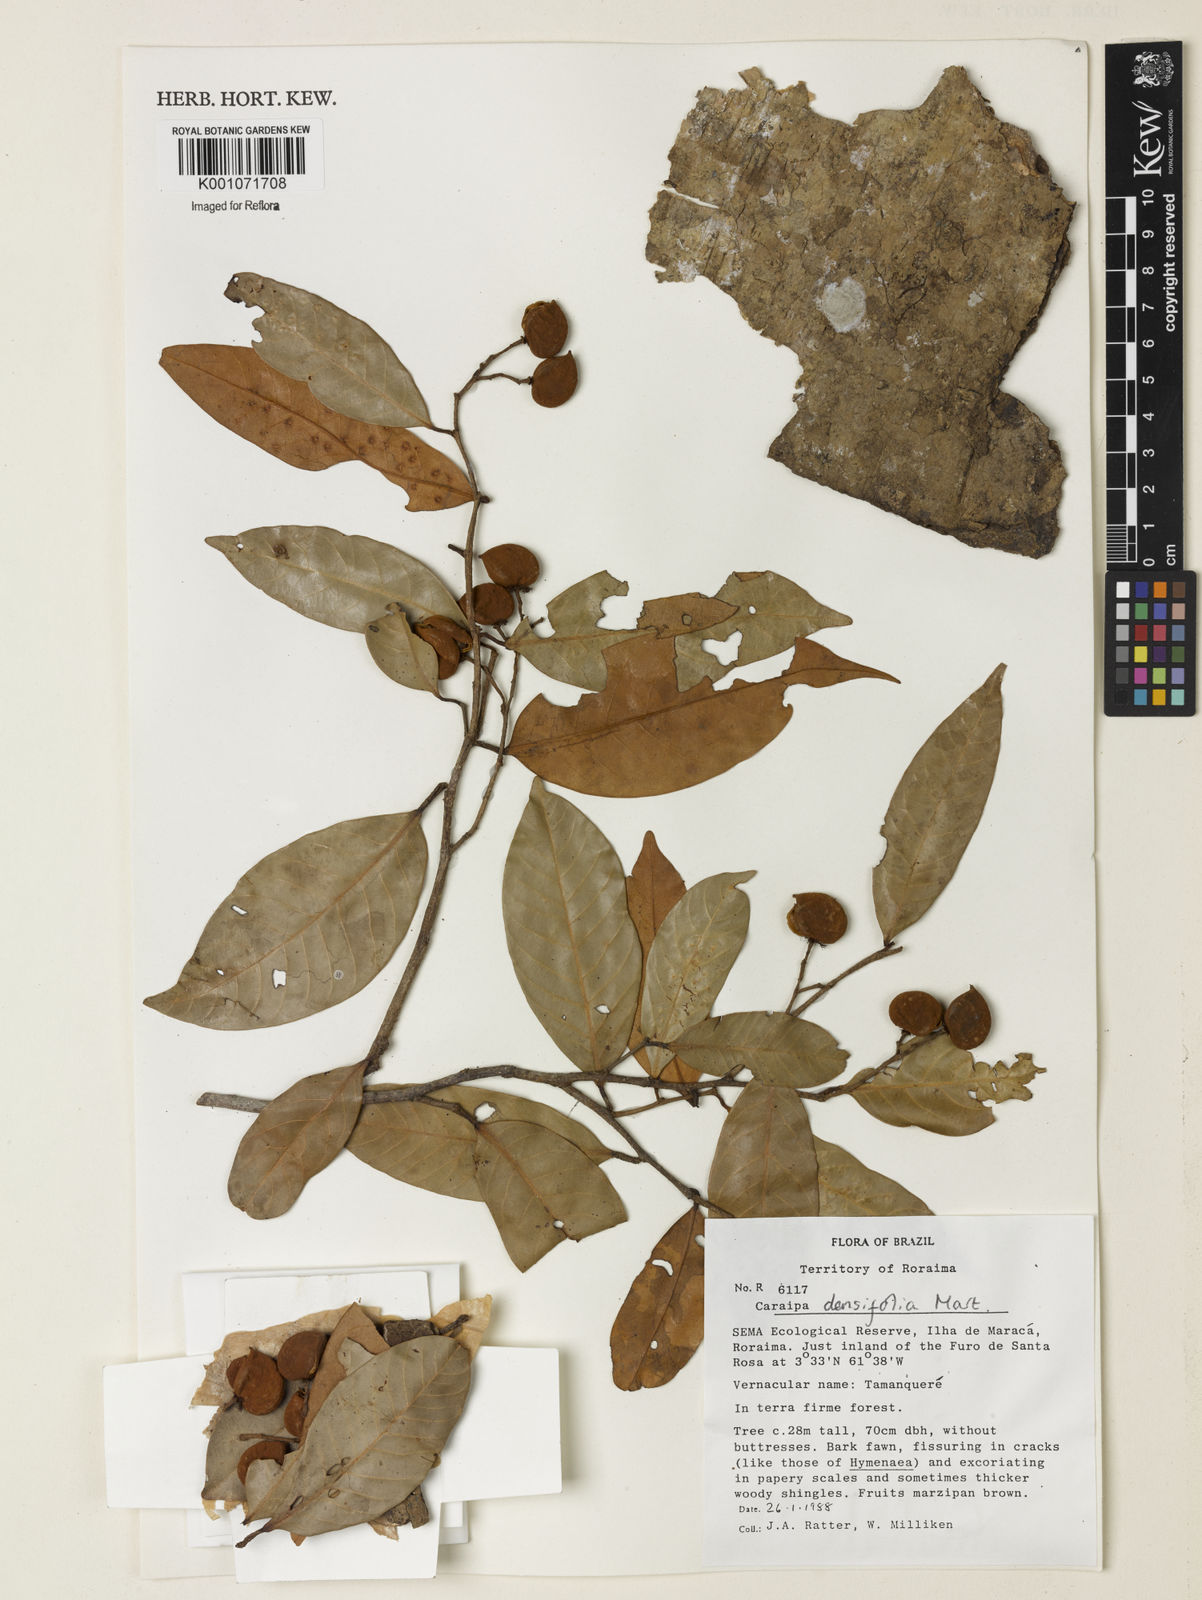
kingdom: Plantae
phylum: Tracheophyta
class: Magnoliopsida
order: Malpighiales
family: Calophyllaceae
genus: Caraipa
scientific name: Caraipa densifolia
